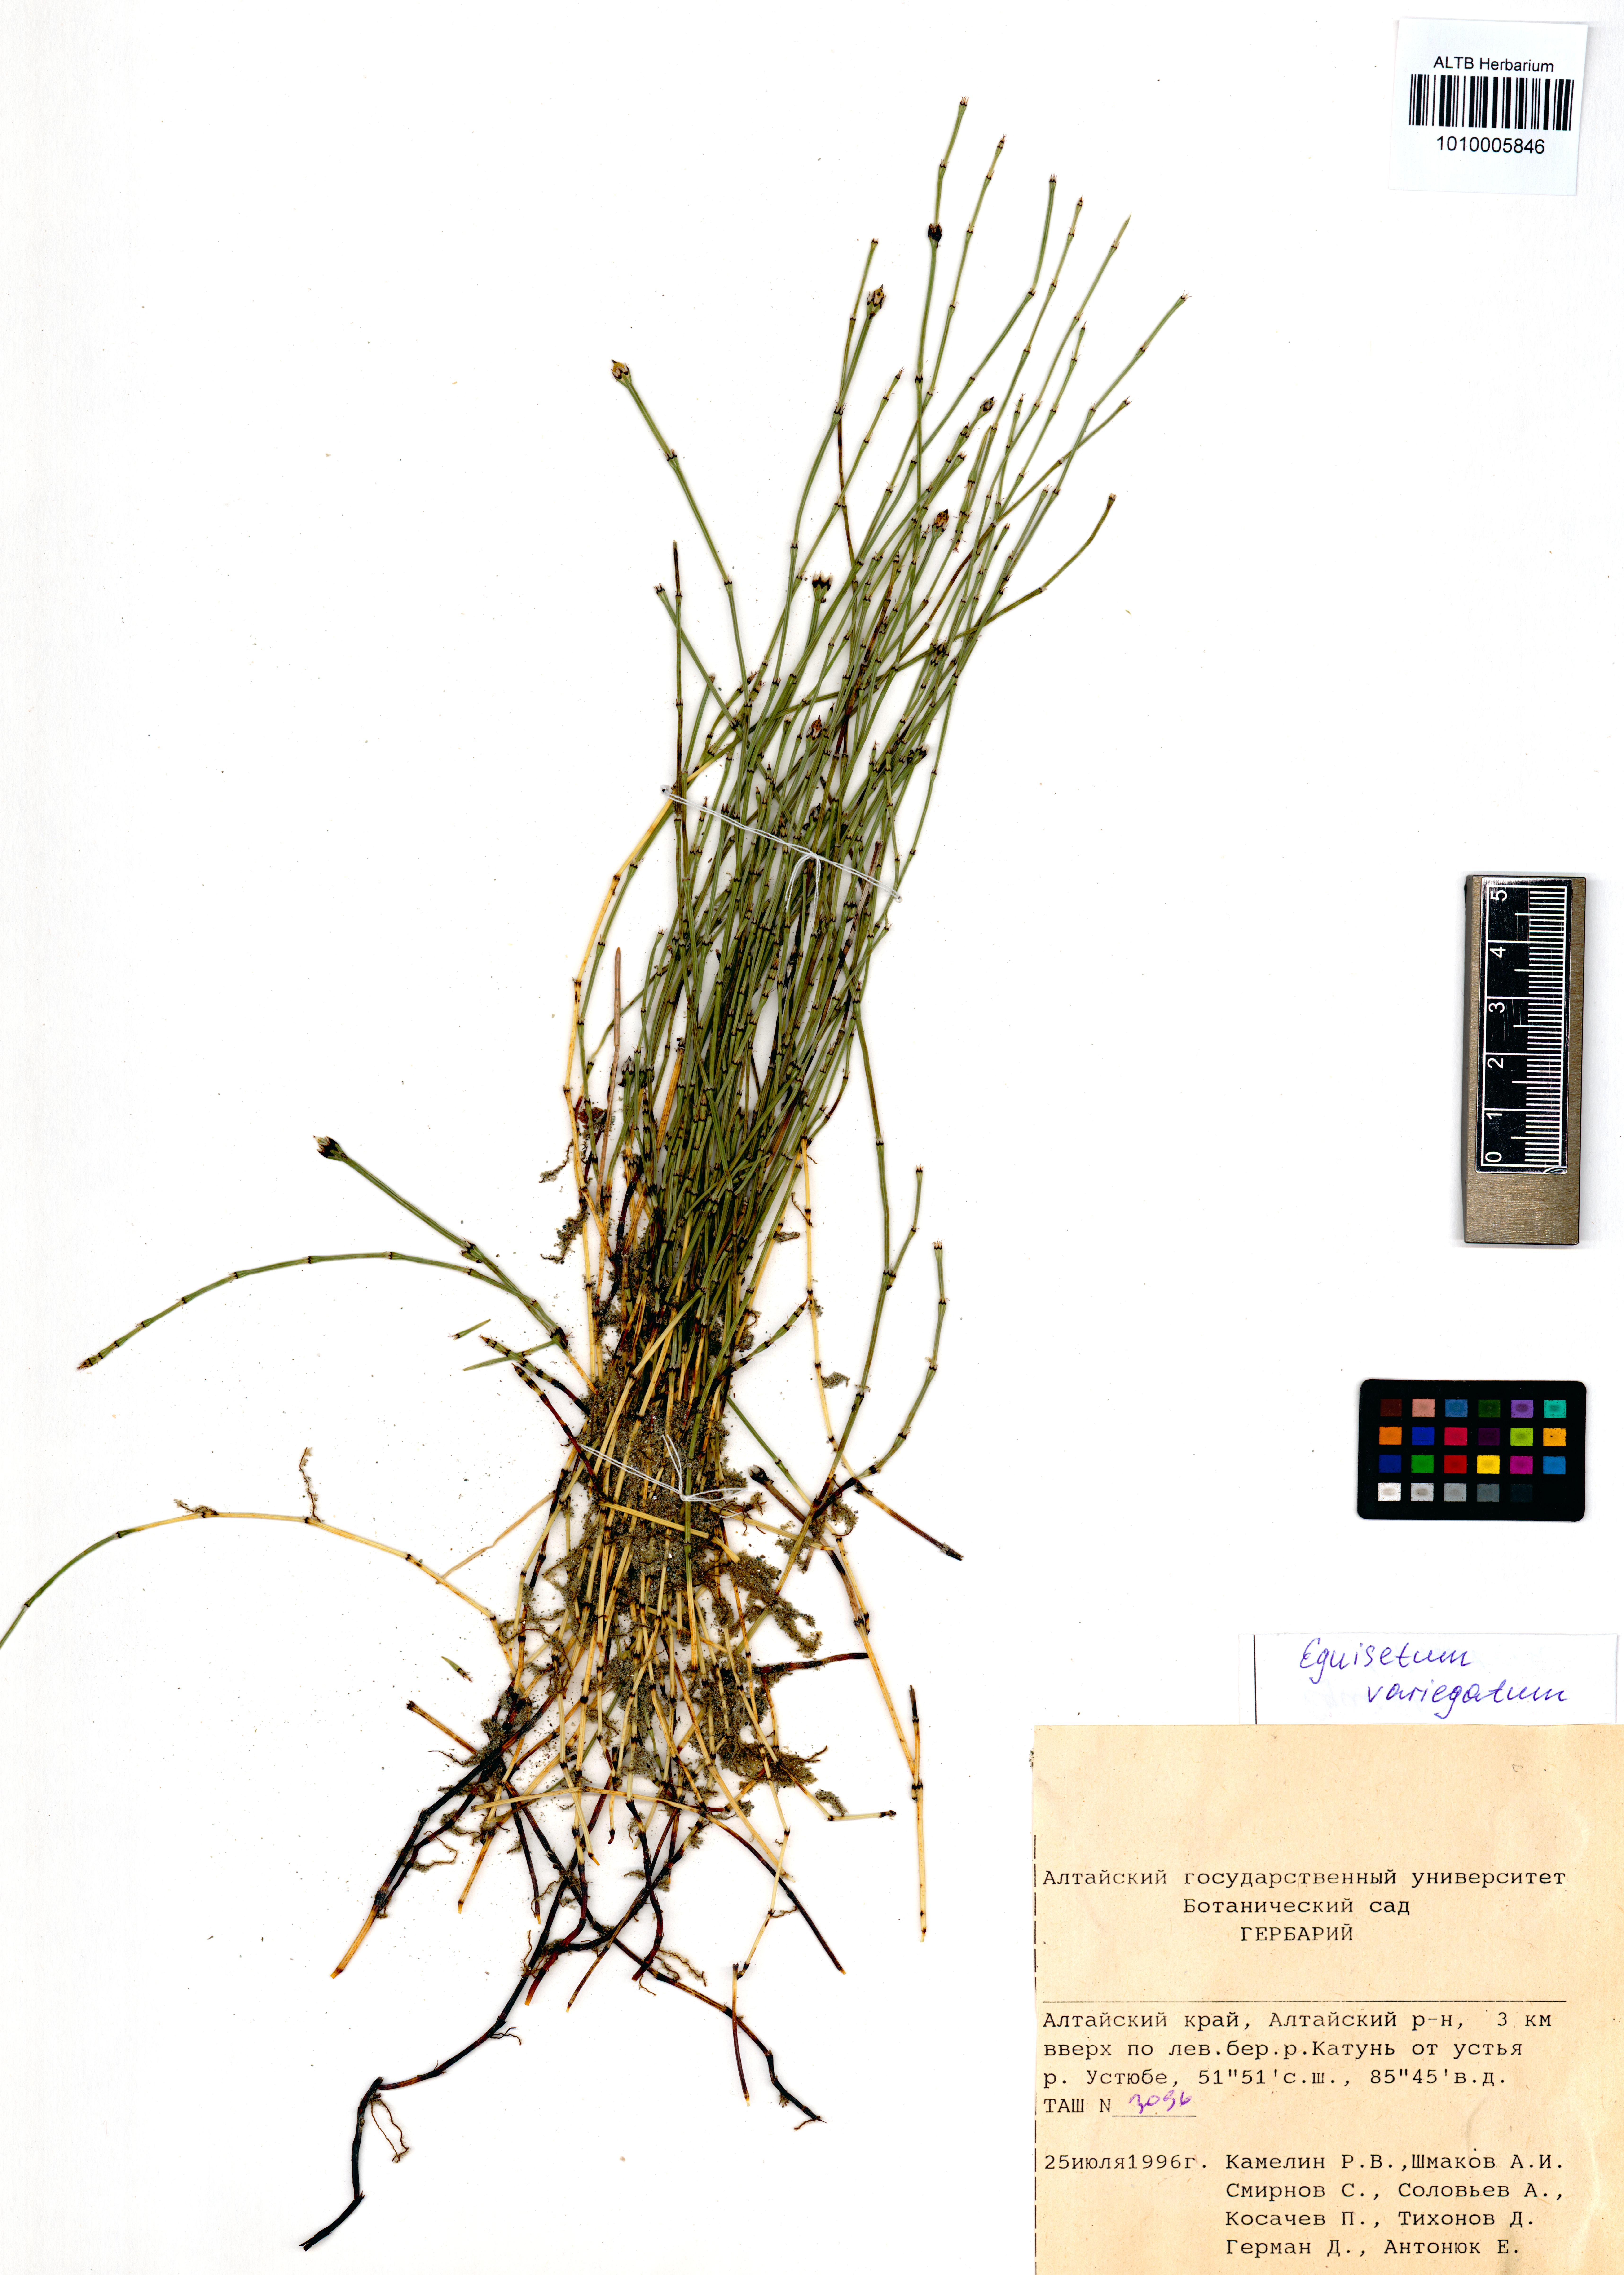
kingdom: Plantae
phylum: Tracheophyta
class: Polypodiopsida
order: Equisetales
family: Equisetaceae
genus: Equisetum
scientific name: Equisetum variegatum
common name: Variegated horsetail
